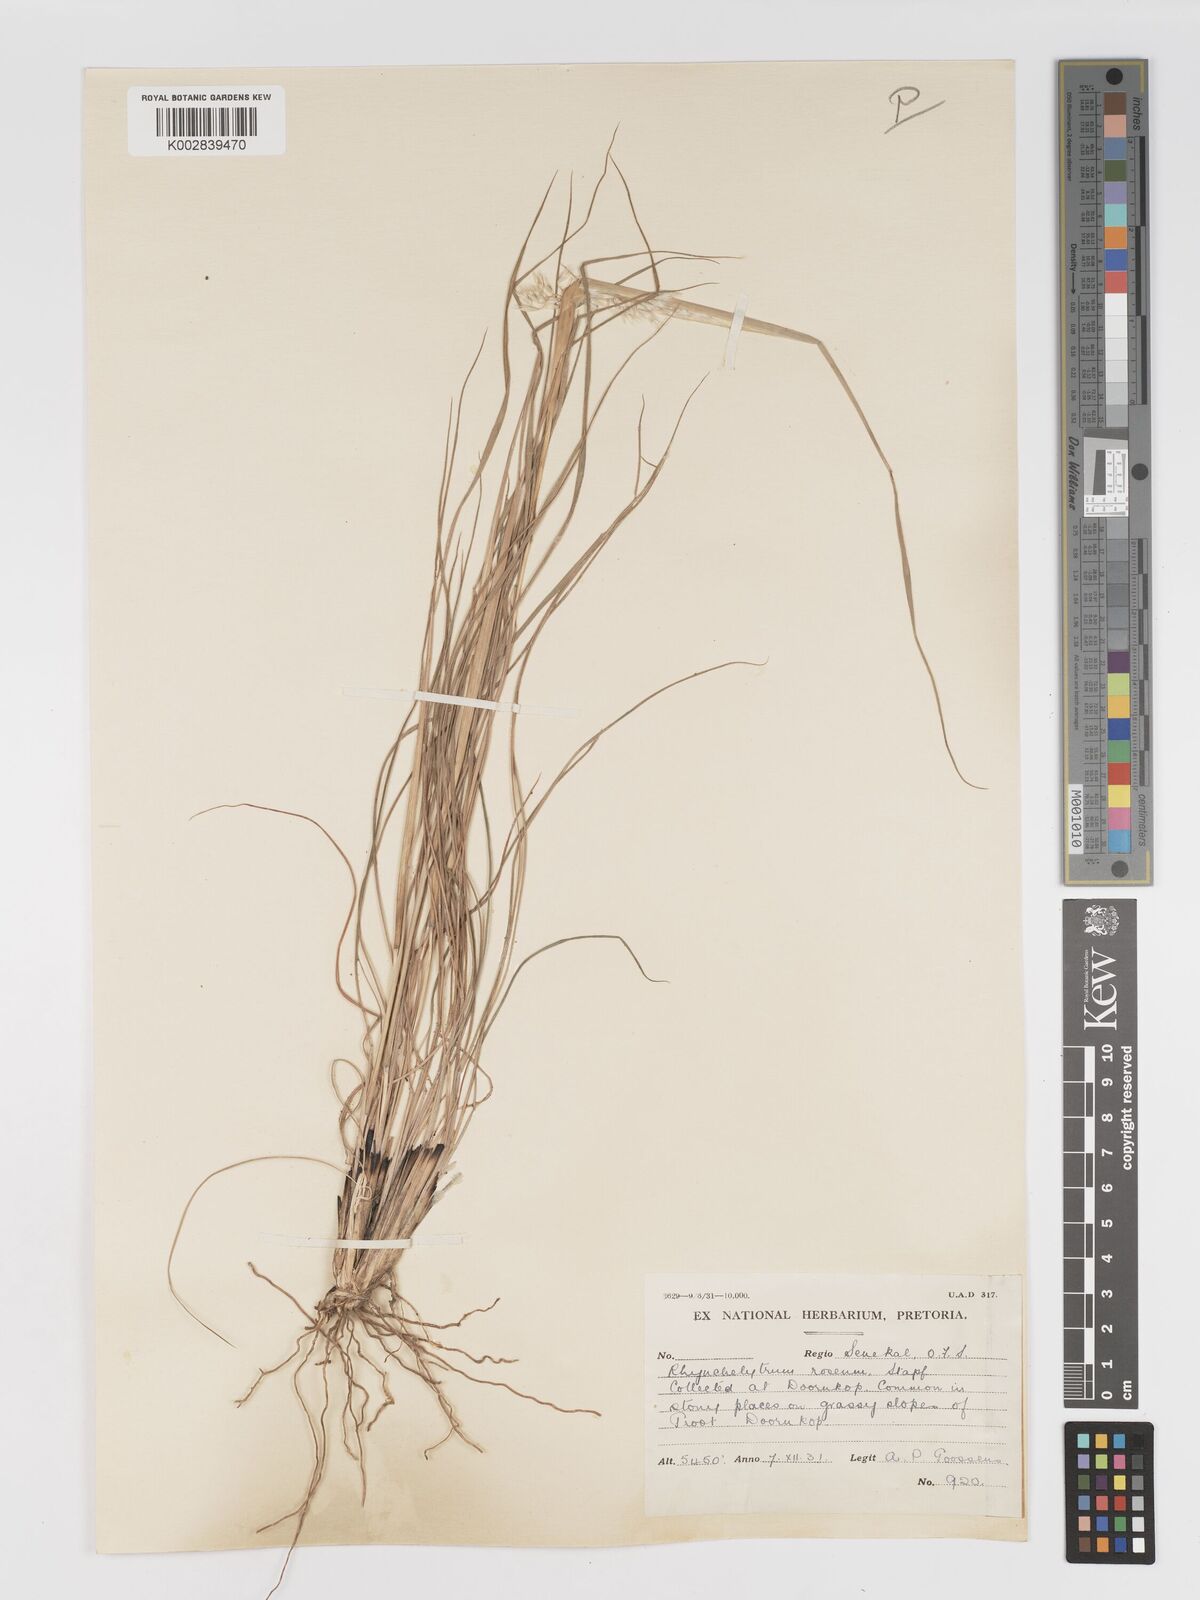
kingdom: Plantae
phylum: Tracheophyta
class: Liliopsida
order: Poales
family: Poaceae
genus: Melinis
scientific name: Melinis nerviglumis
